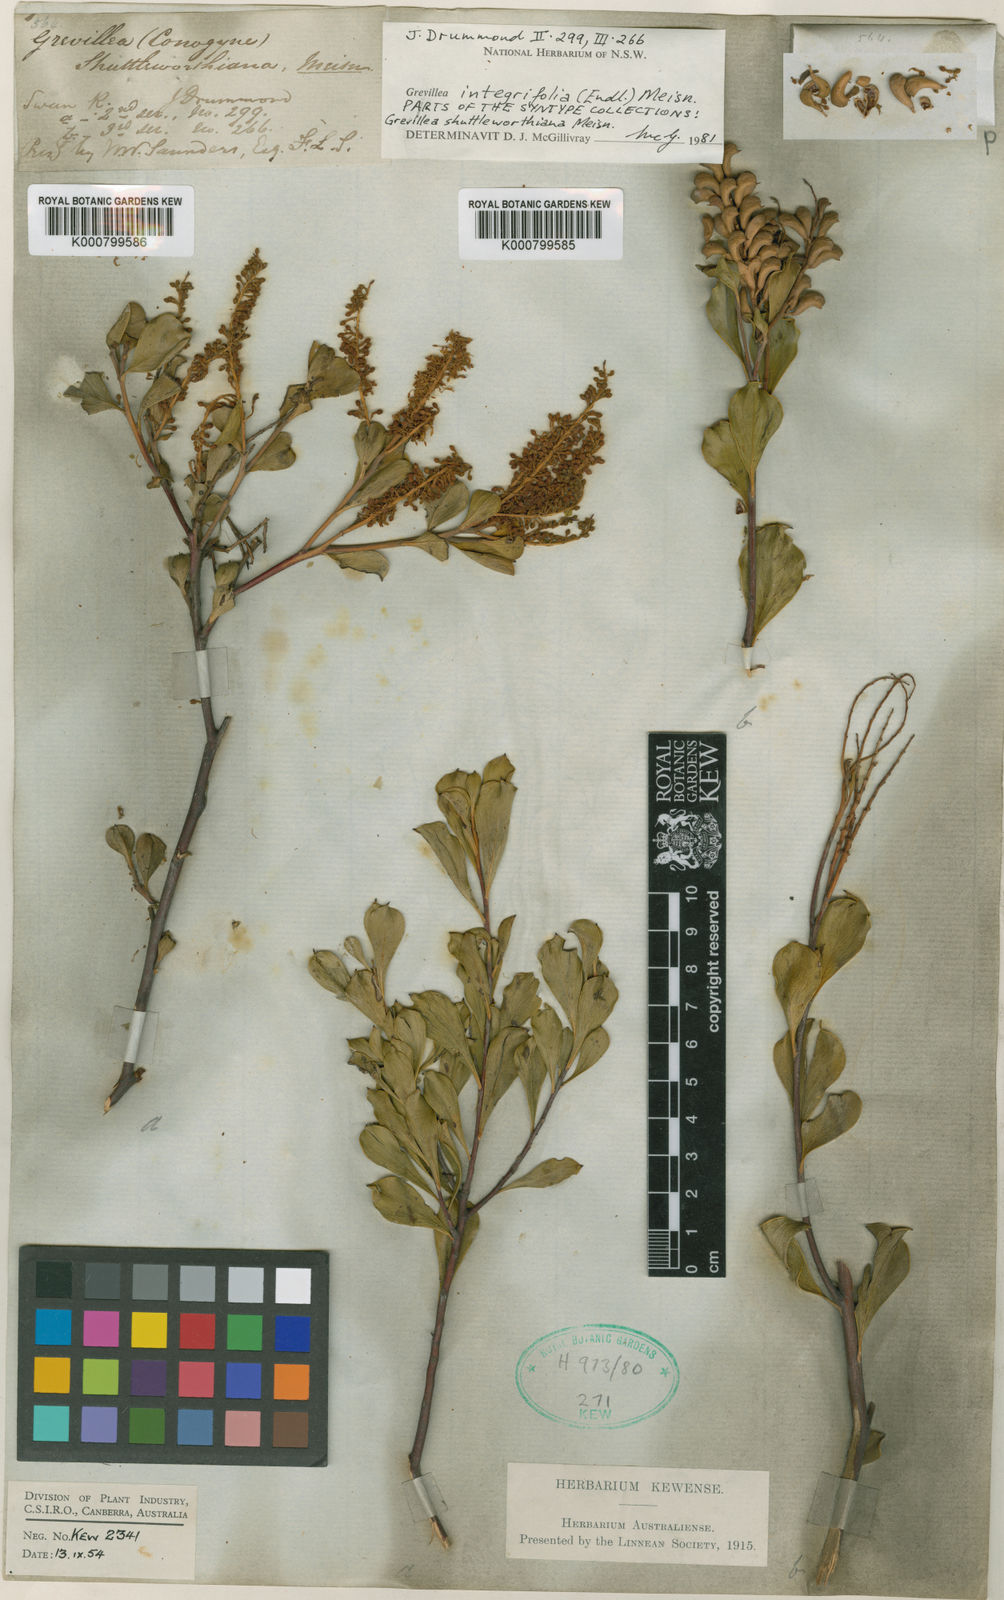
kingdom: Plantae
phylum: Tracheophyta
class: Magnoliopsida
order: Proteales
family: Proteaceae
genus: Grevillea
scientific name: Grevillea integrifolia
